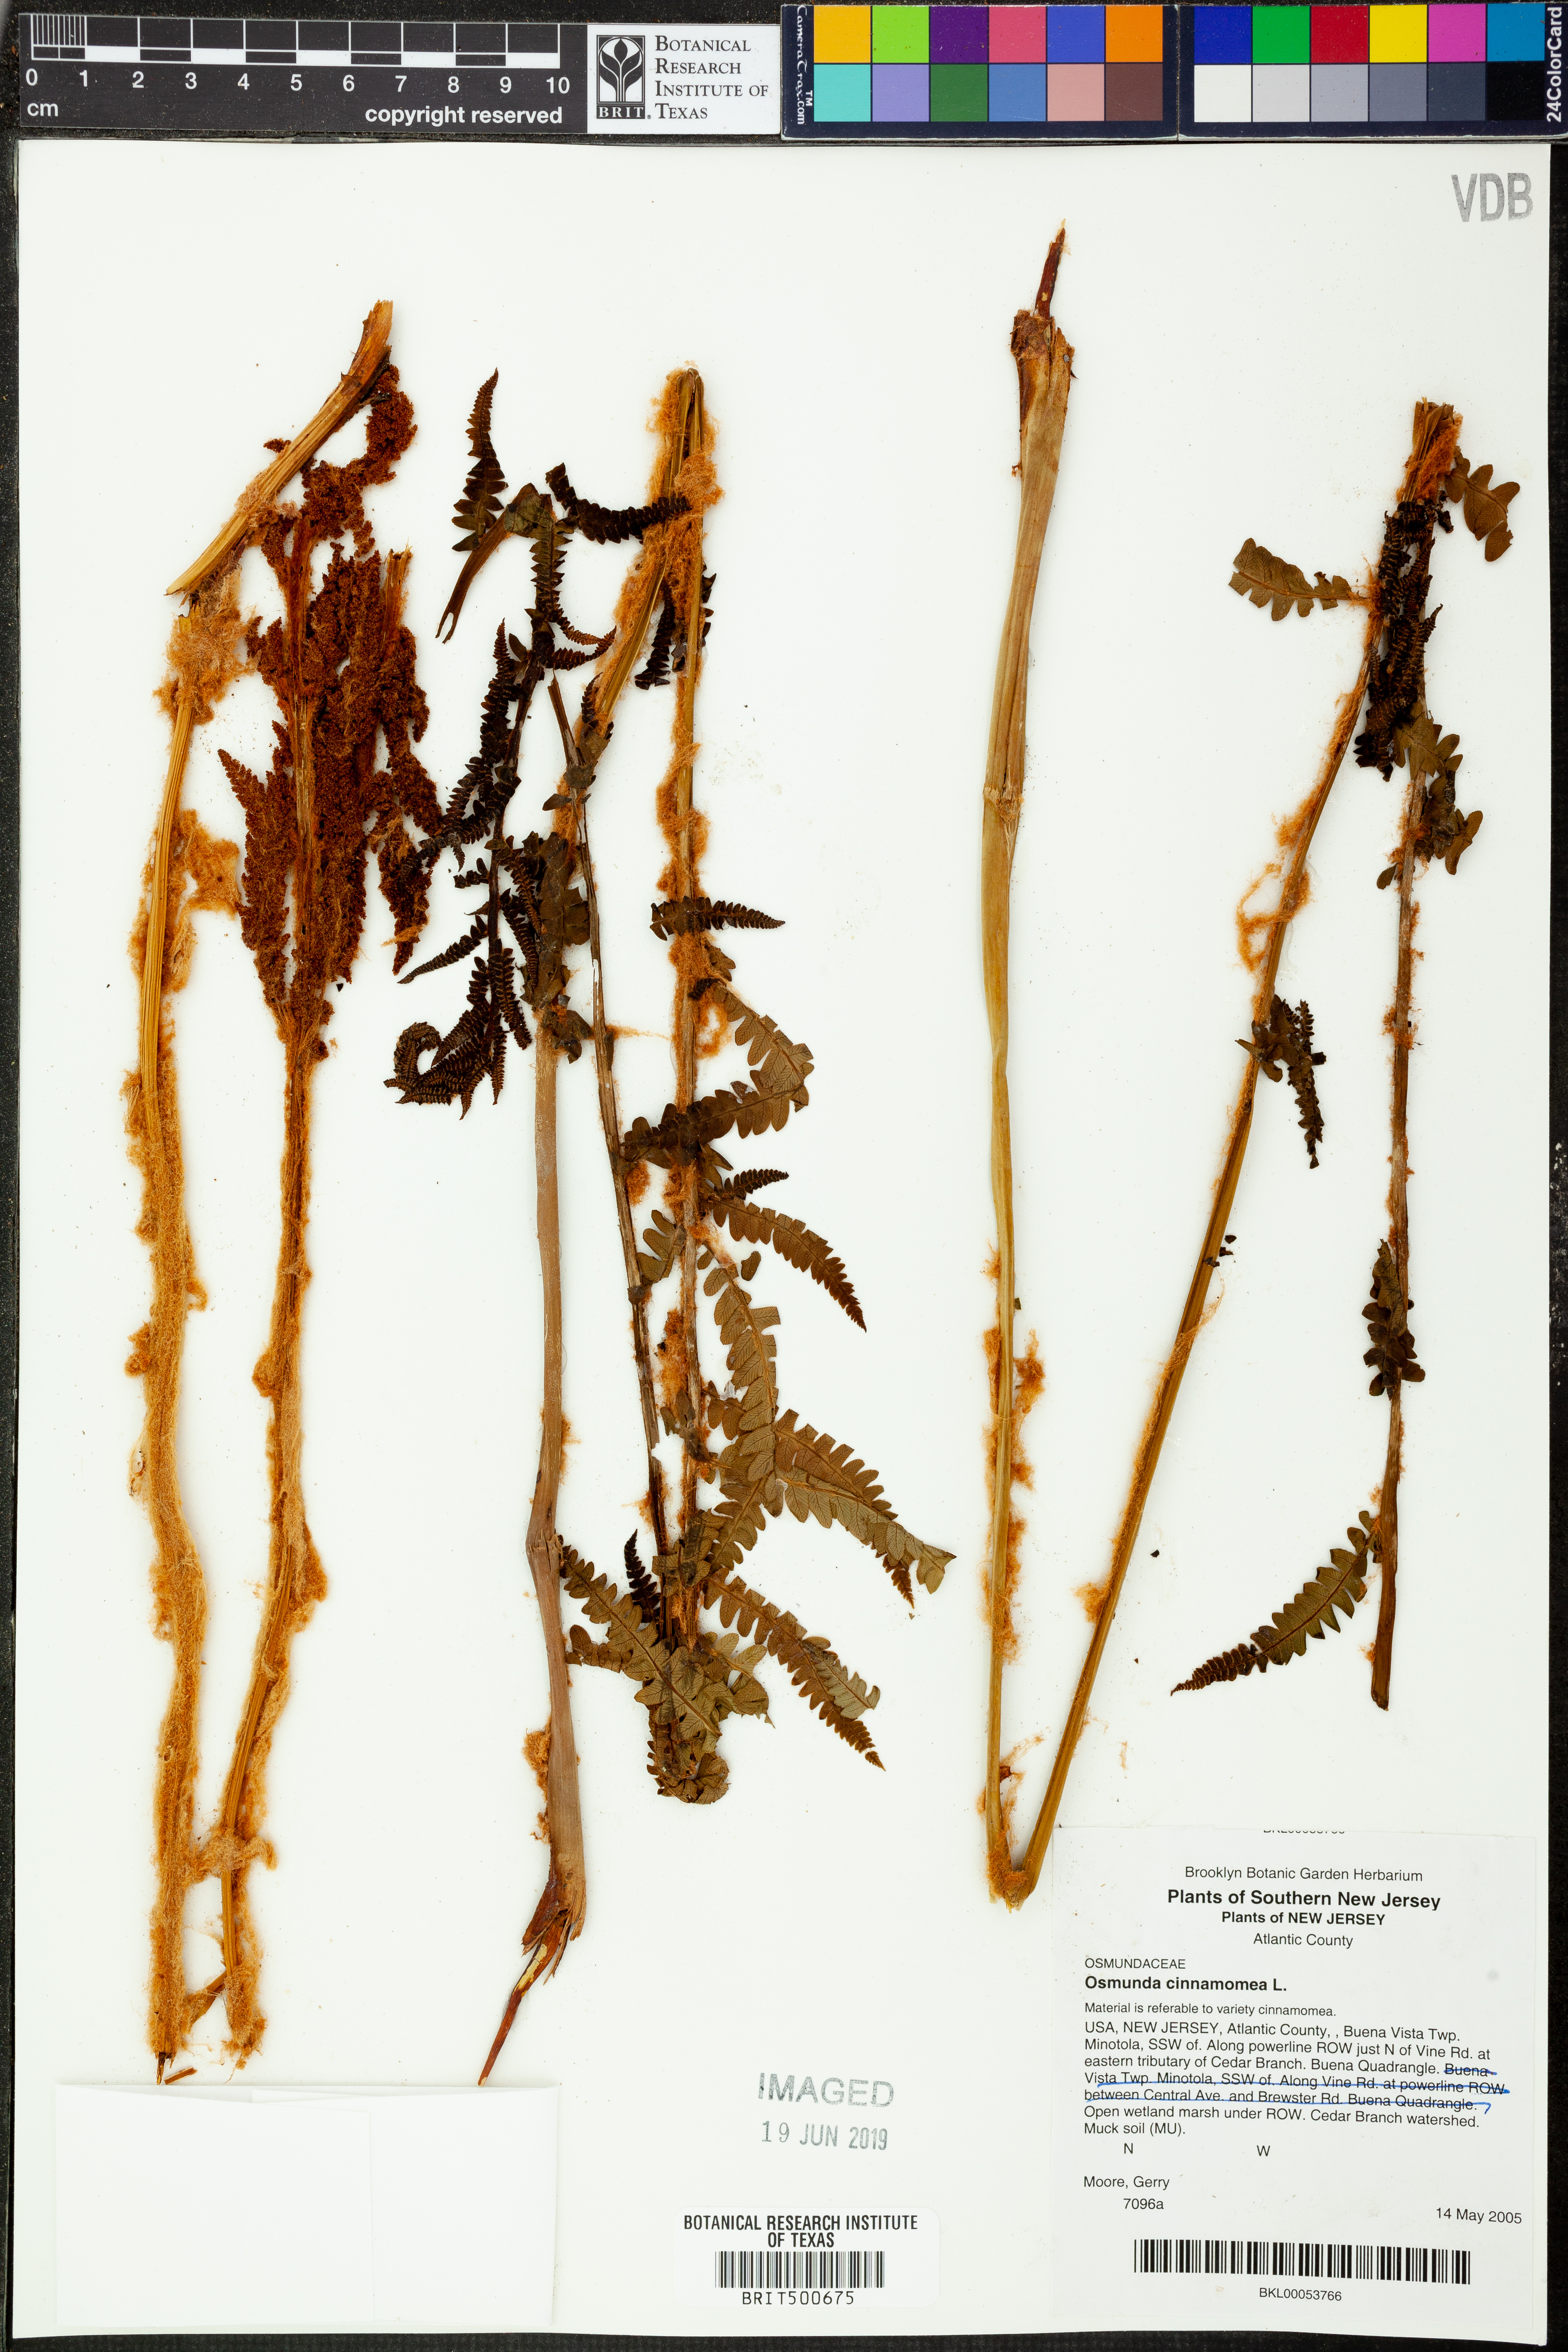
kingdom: Plantae
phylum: Tracheophyta
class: Polypodiopsida
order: Osmundales
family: Osmundaceae
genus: Osmundastrum
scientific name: Osmundastrum cinnamomeum
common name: Cinnamon fern
